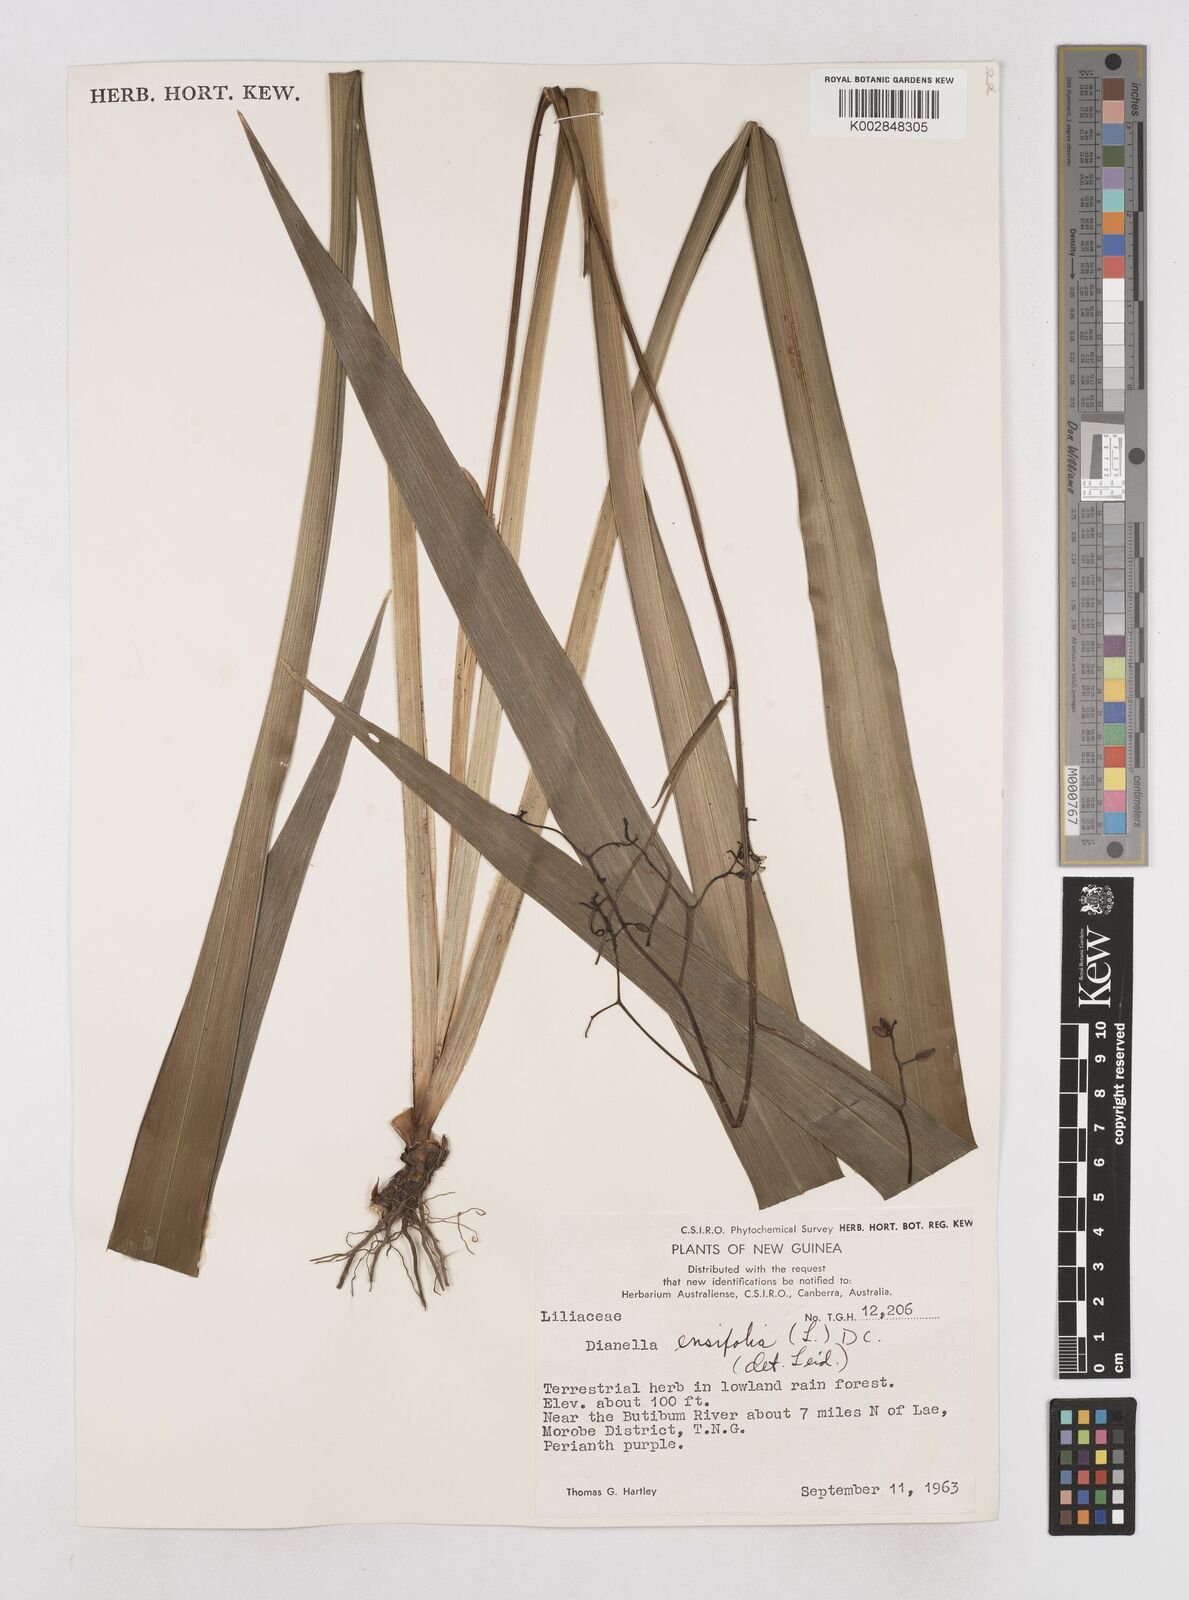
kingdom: Plantae
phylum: Tracheophyta
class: Liliopsida
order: Asparagales
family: Asphodelaceae
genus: Dianella
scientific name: Dianella ensifolia
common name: New zealand lilyplant
